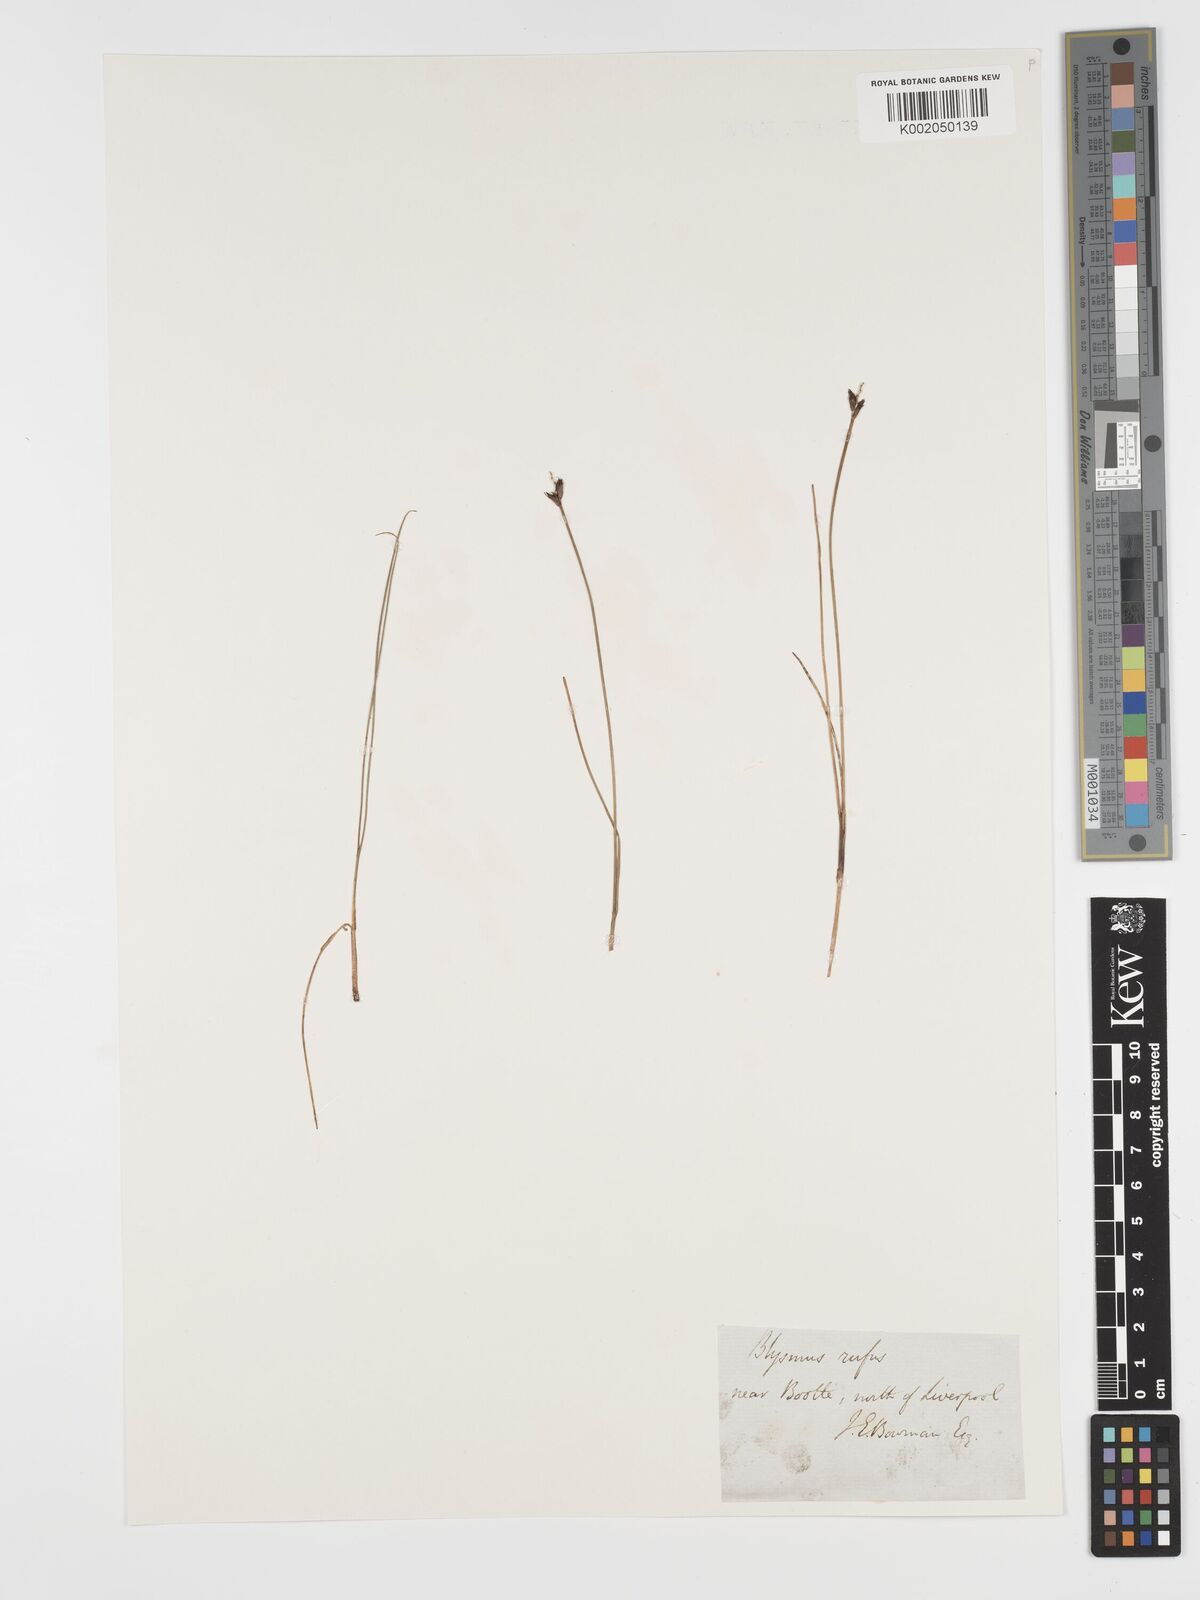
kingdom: Plantae
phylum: Tracheophyta
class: Liliopsida
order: Poales
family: Cyperaceae
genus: Blysmus
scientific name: Blysmus rufus
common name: Saltmarsh flat-sedge
